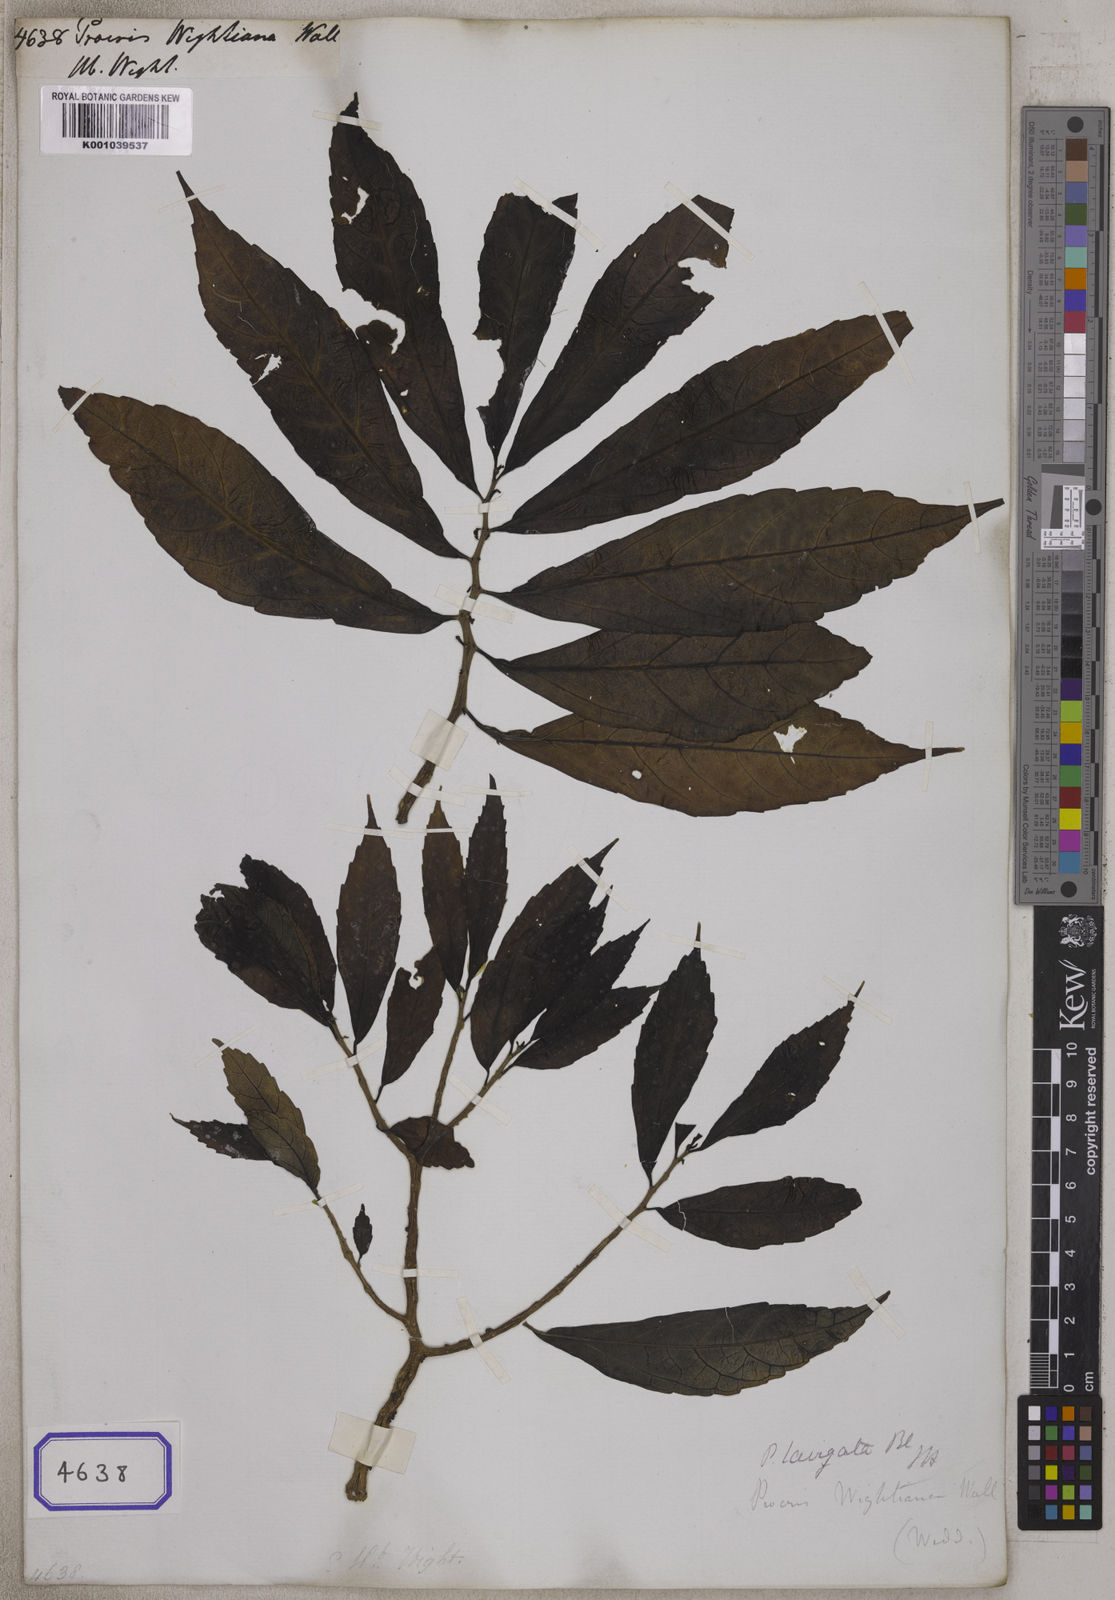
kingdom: Plantae
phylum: Tracheophyta
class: Magnoliopsida
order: Rosales
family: Urticaceae
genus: Procris
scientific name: Procris
